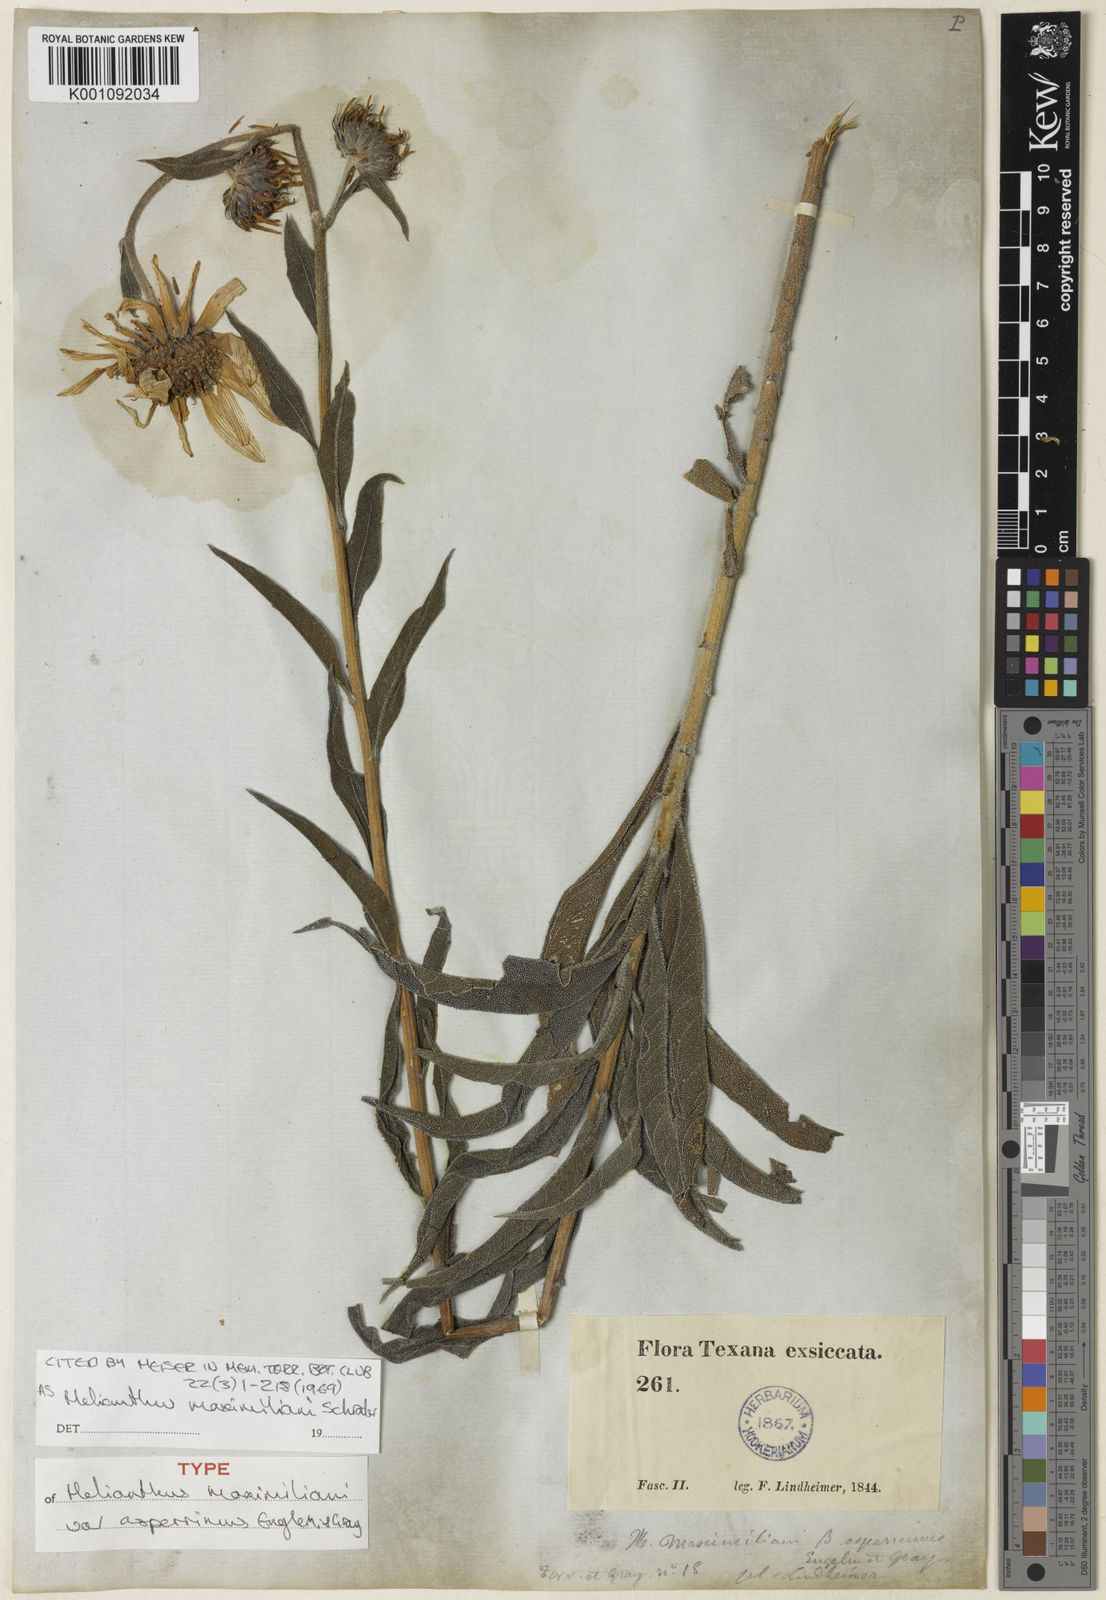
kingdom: Plantae
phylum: Tracheophyta
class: Magnoliopsida
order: Asterales
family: Asteraceae
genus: Helianthus
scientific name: Helianthus maximiliani
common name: Maximilian's sunflower
